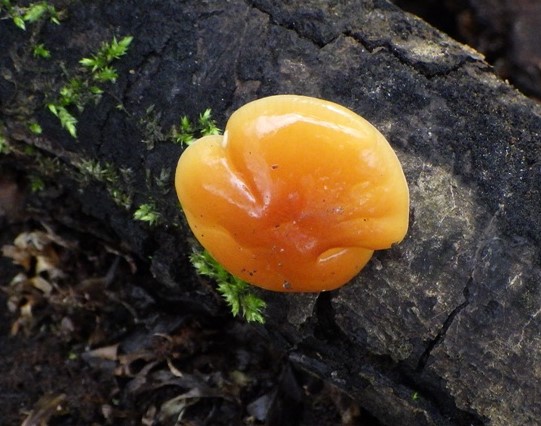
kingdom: Fungi
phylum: Basidiomycota
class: Agaricomycetes
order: Agaricales
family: Physalacriaceae
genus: Flammulina
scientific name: Flammulina velutipes
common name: gul fløjlsfod
